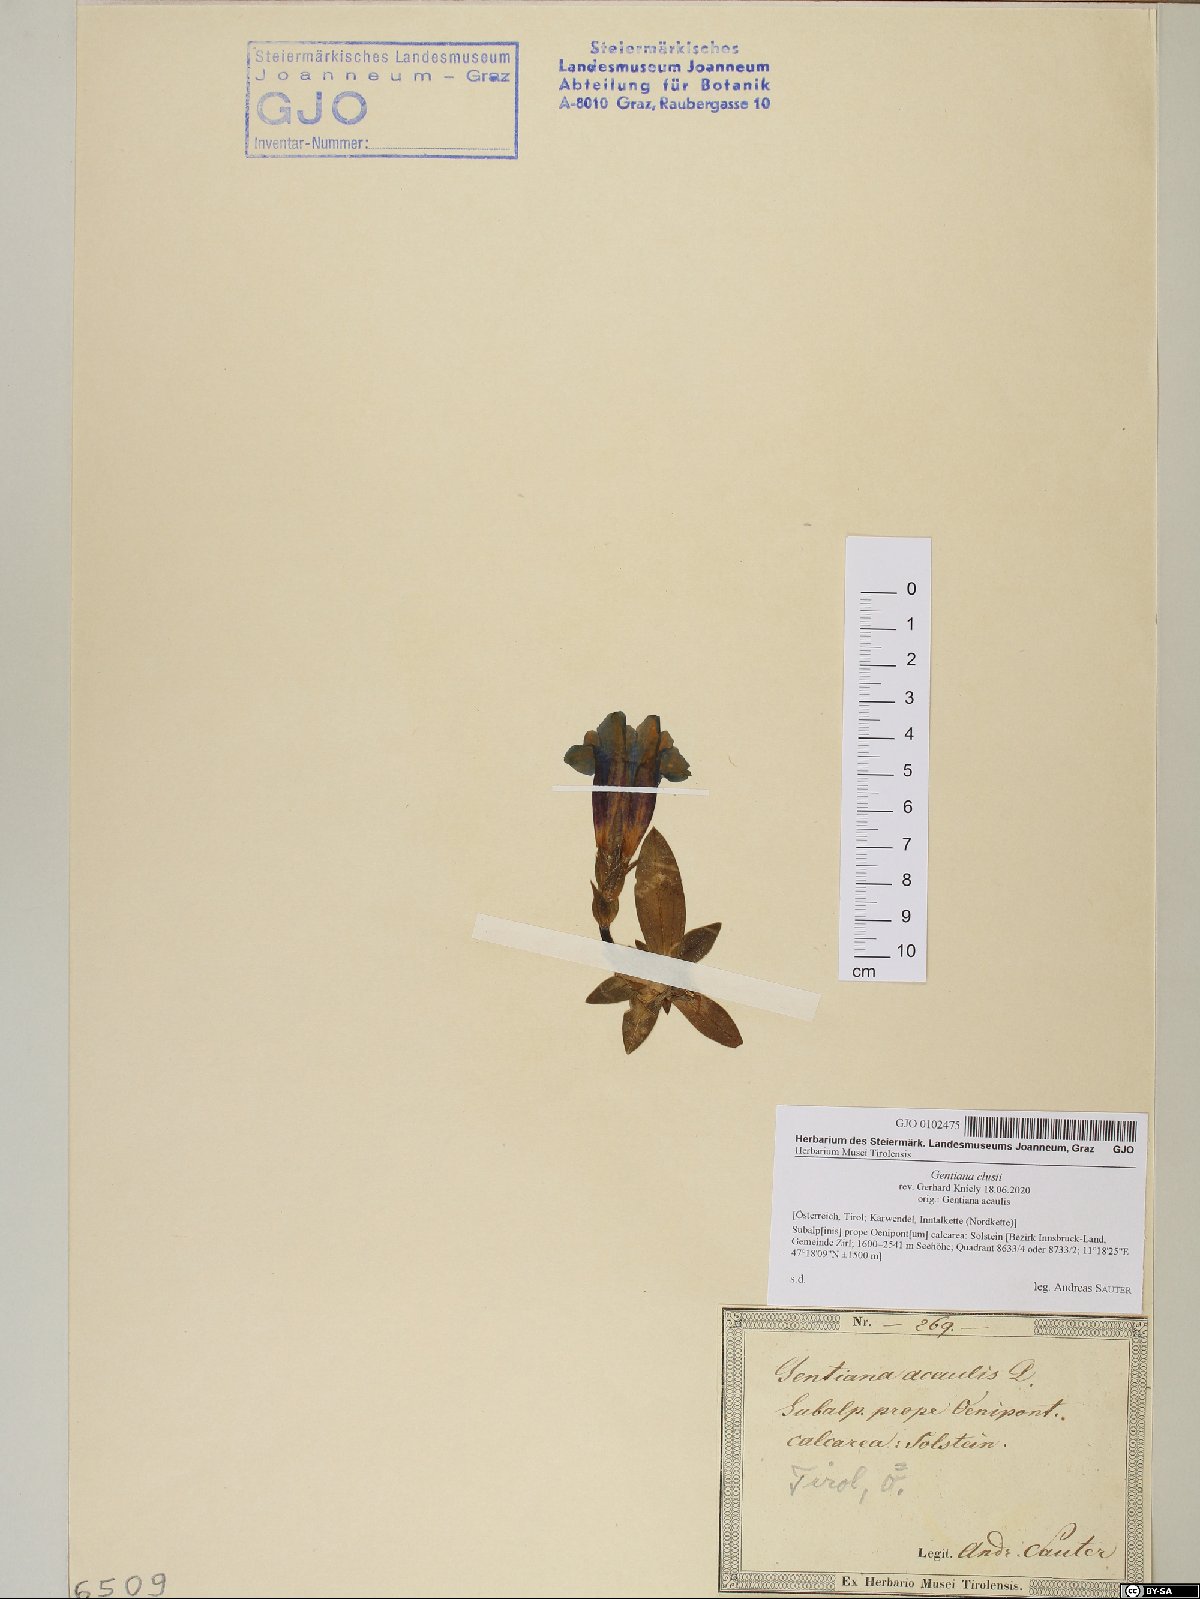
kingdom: Plantae
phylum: Tracheophyta
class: Magnoliopsida
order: Gentianales
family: Gentianaceae
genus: Gentiana
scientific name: Gentiana clusii
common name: Trumpet gentian
